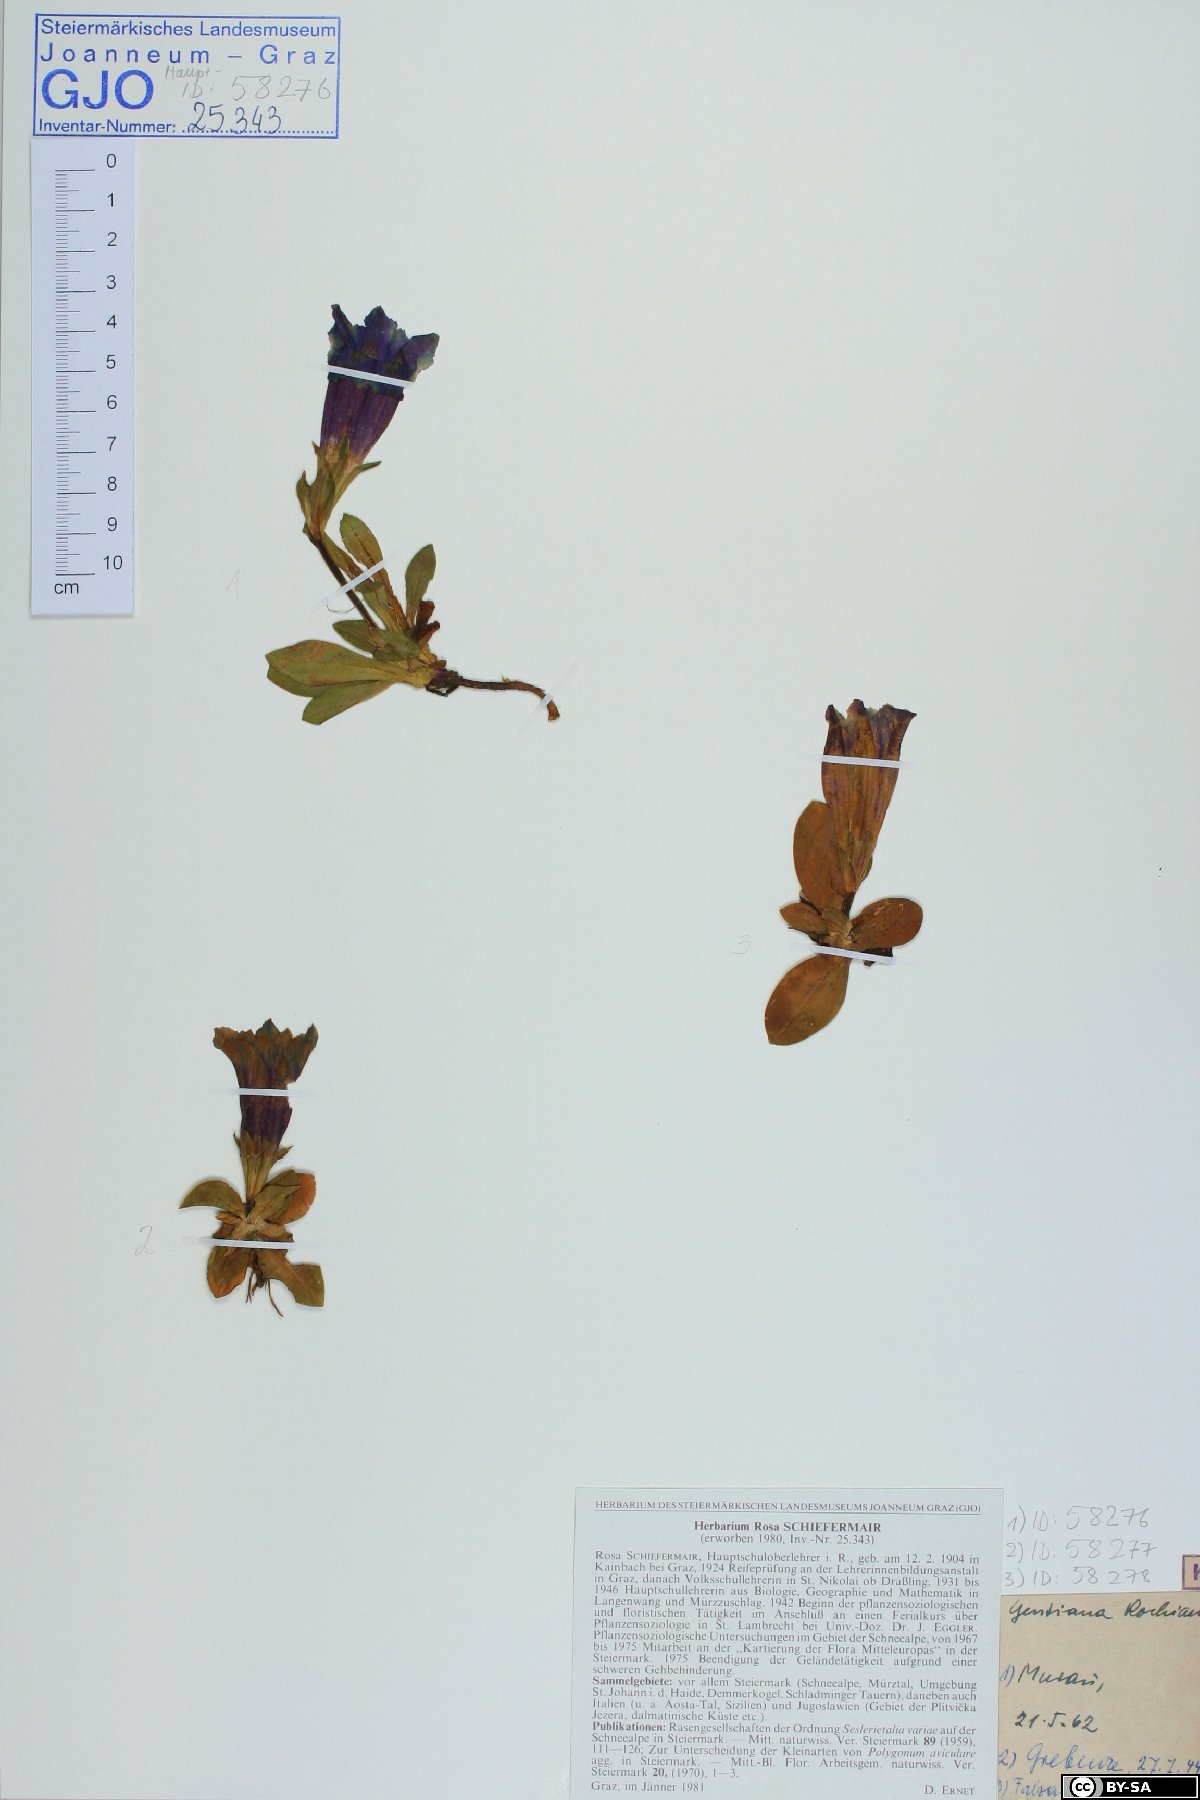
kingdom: Plantae
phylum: Tracheophyta
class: Magnoliopsida
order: Gentianales
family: Gentianaceae
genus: Gentiana
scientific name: Gentiana acaulis
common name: Trumpet gentian
